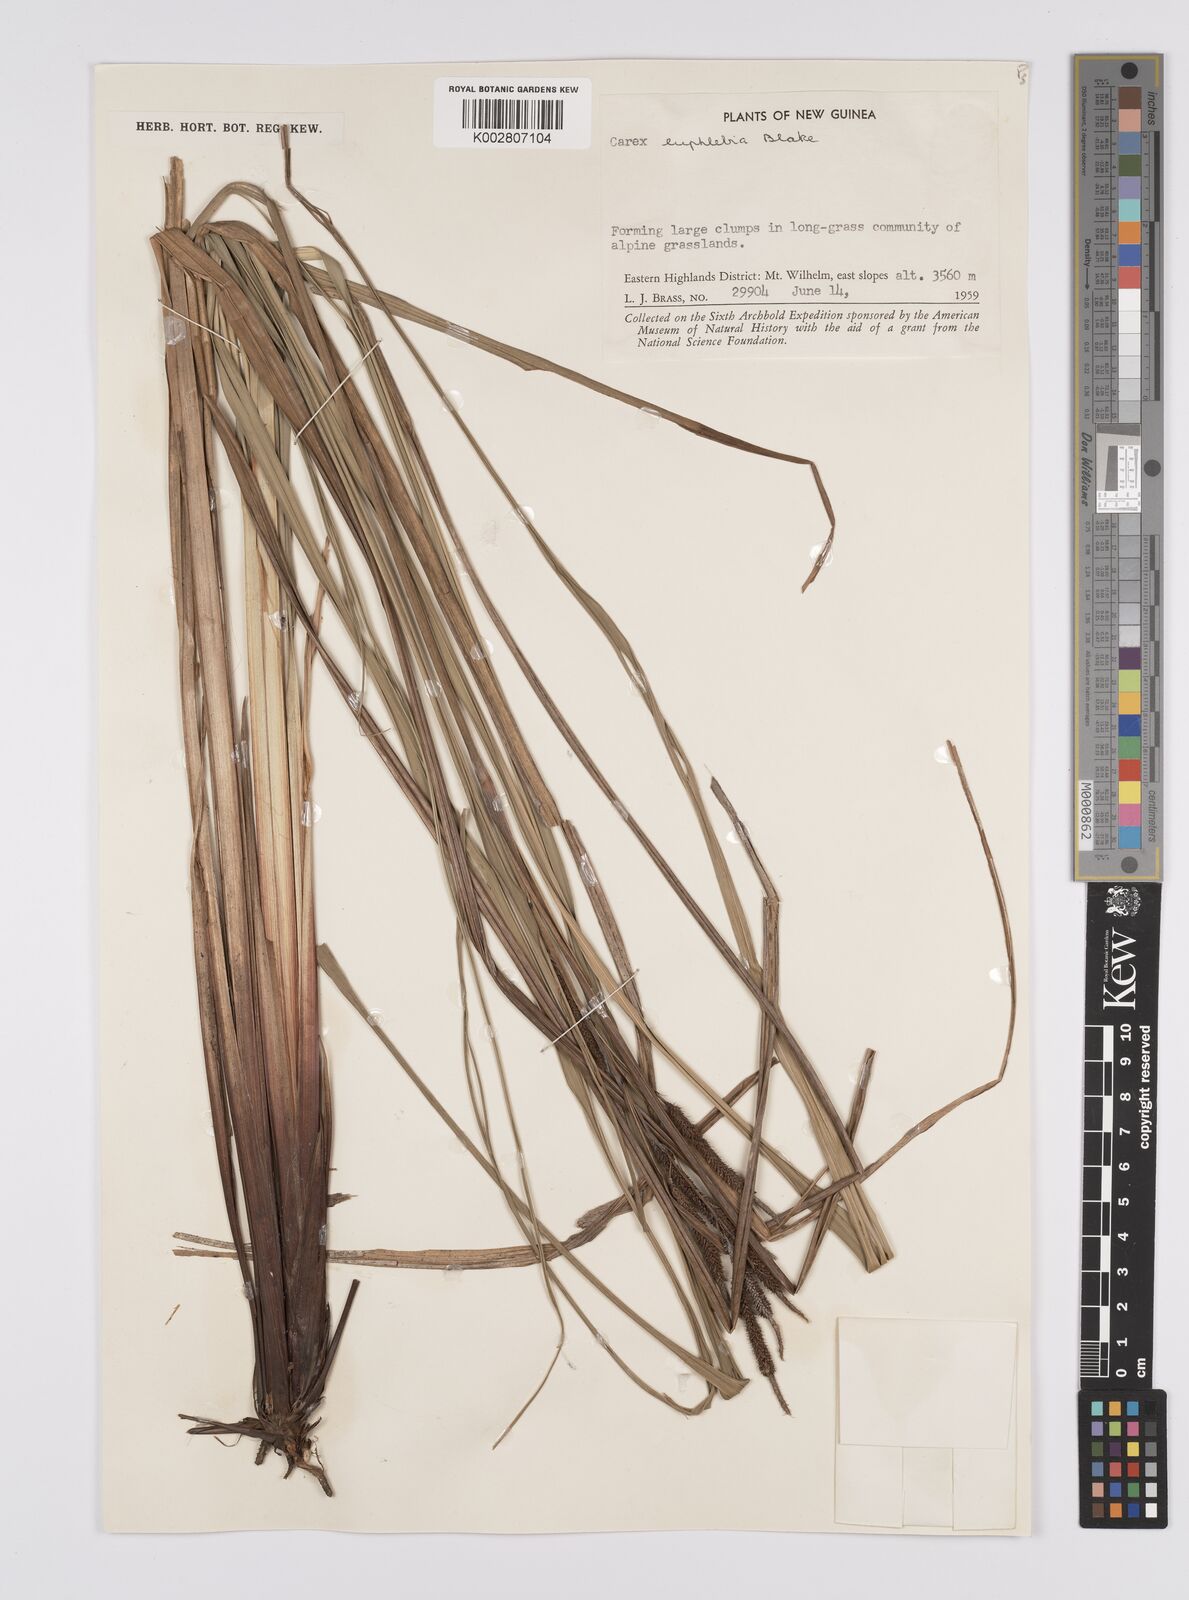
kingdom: Plantae
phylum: Tracheophyta
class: Liliopsida
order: Poales
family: Cyperaceae
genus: Carex
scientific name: Carex graeffeana
